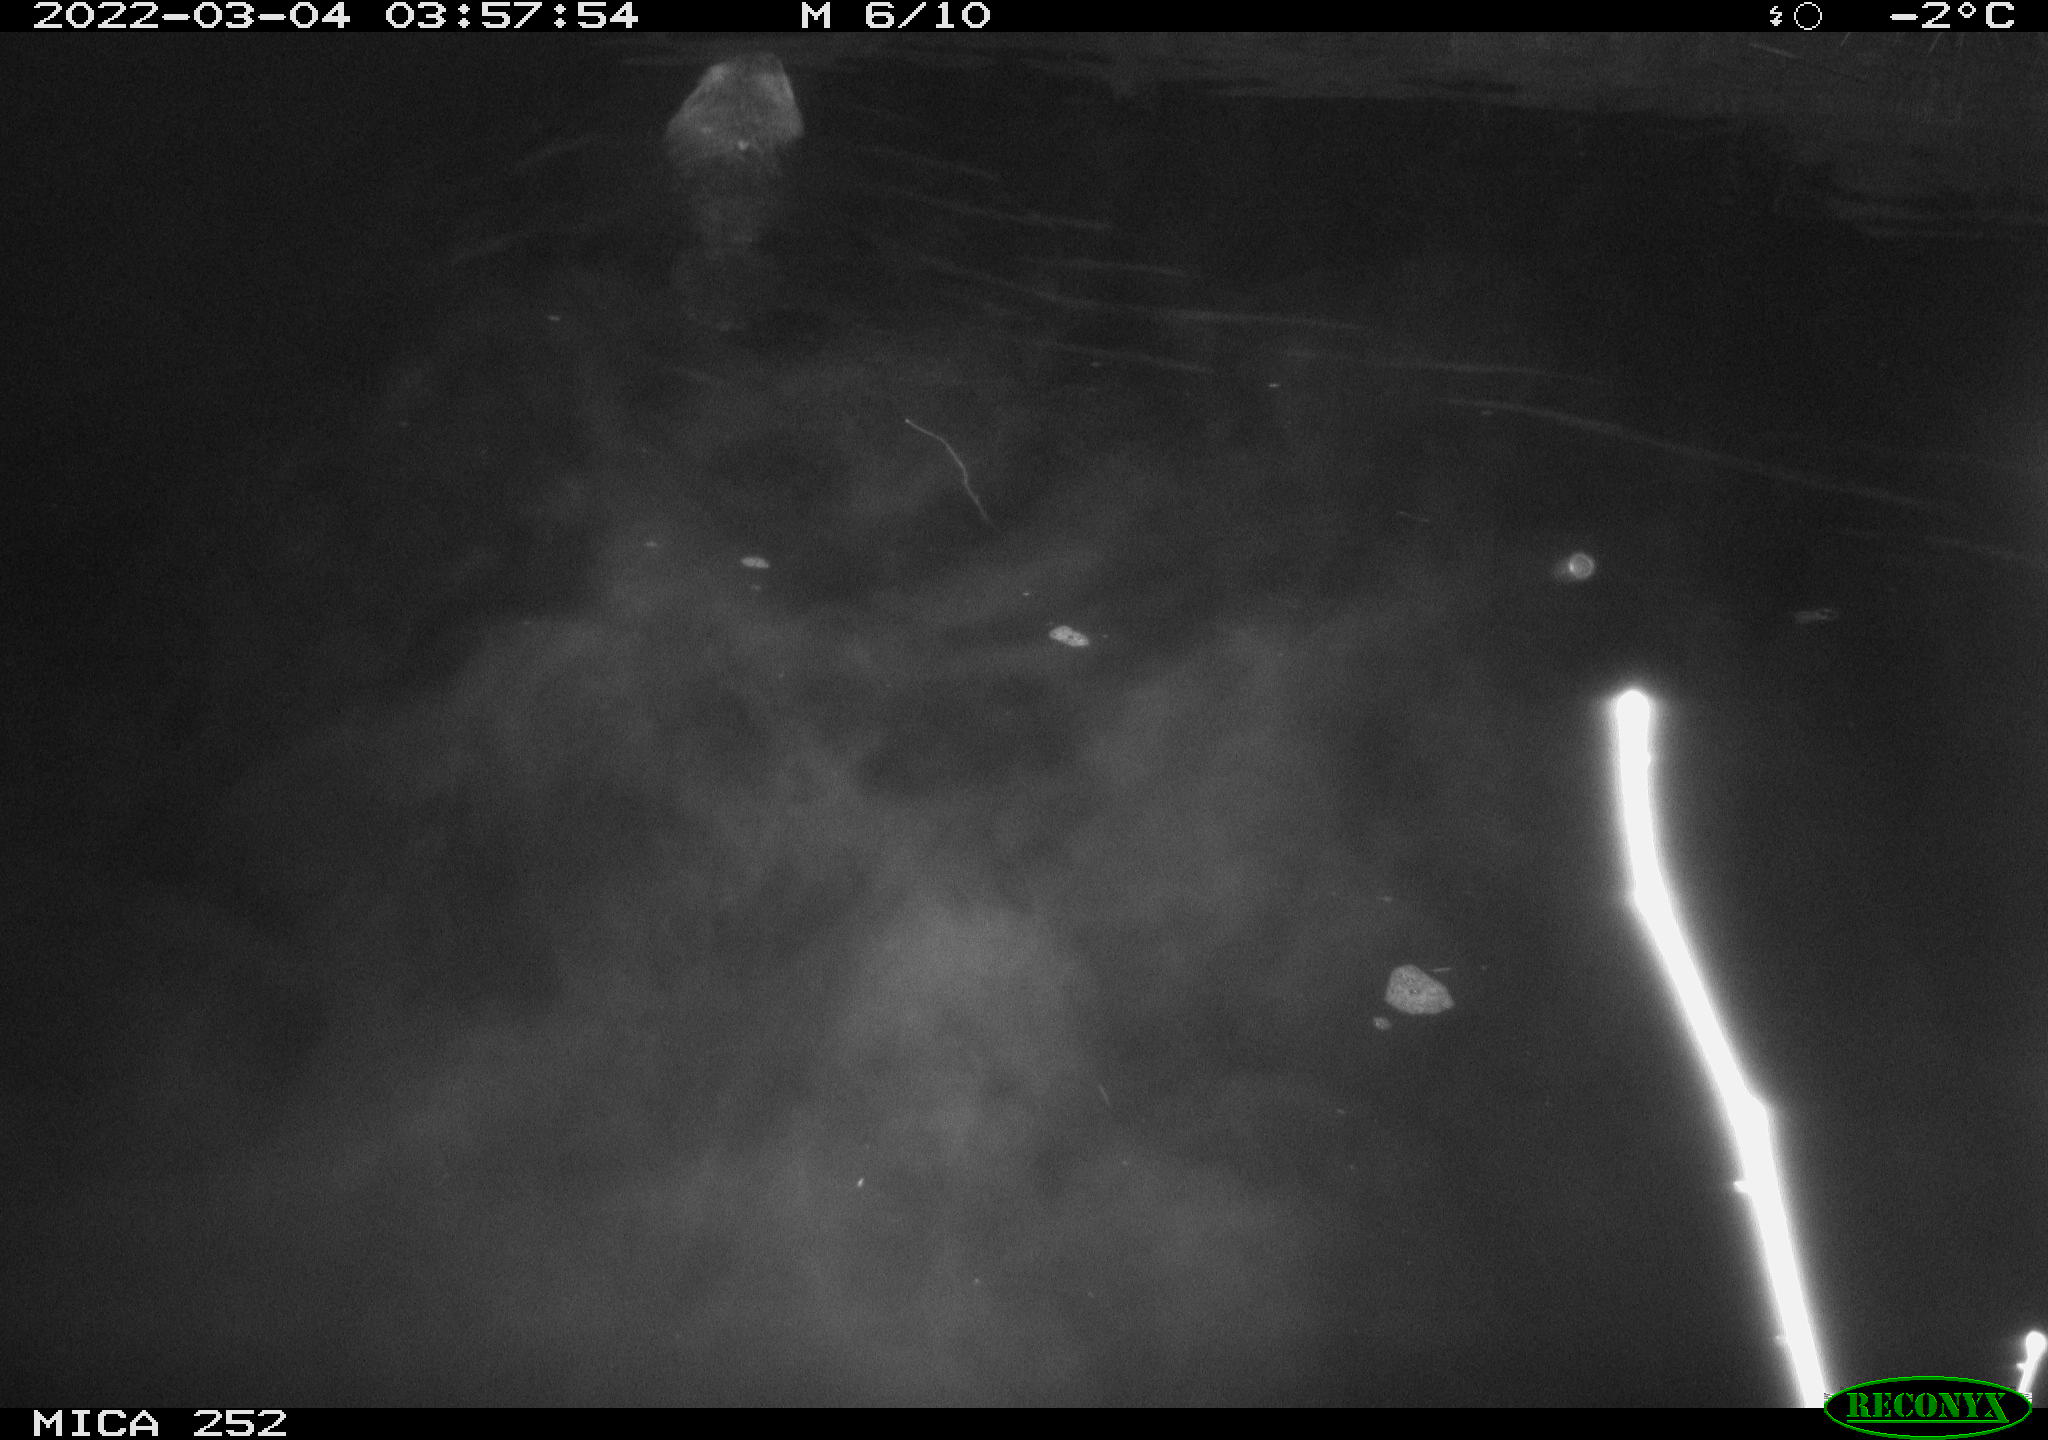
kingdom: Animalia
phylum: Chordata
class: Mammalia
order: Rodentia
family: Castoridae
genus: Castor
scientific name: Castor fiber
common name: Eurasian beaver
